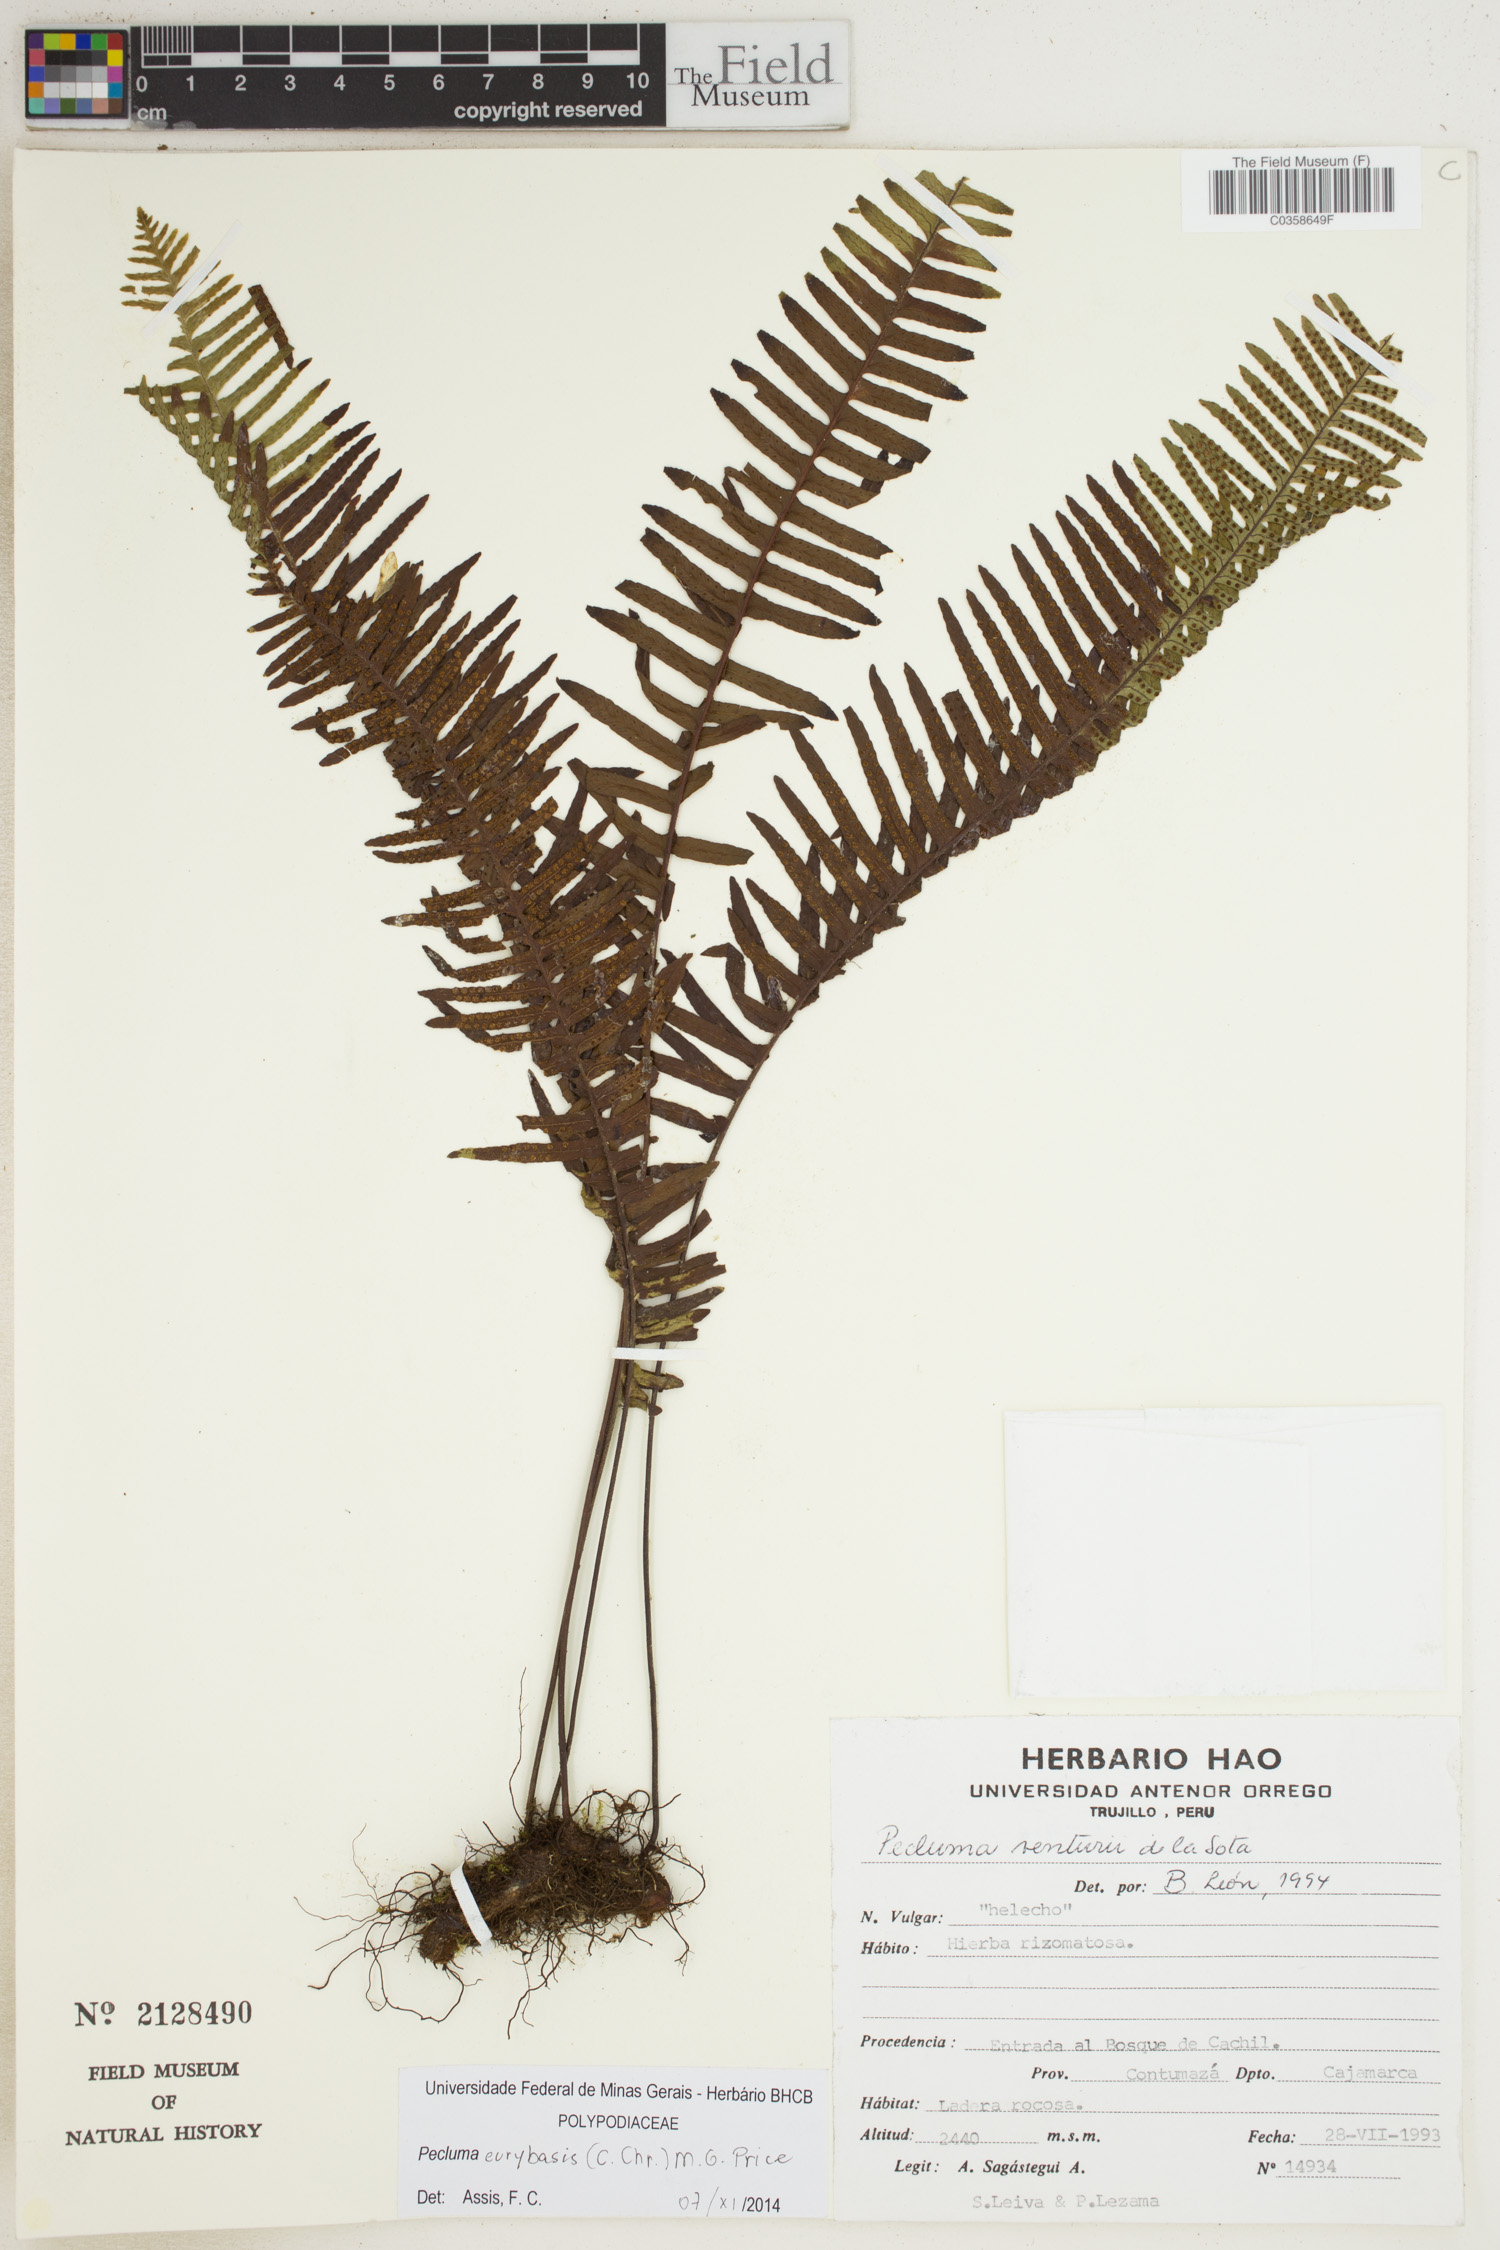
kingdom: Plantae
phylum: Tracheophyta
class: Polypodiopsida
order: Polypodiales
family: Polypodiaceae
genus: Pecluma
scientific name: Pecluma eurybasis
